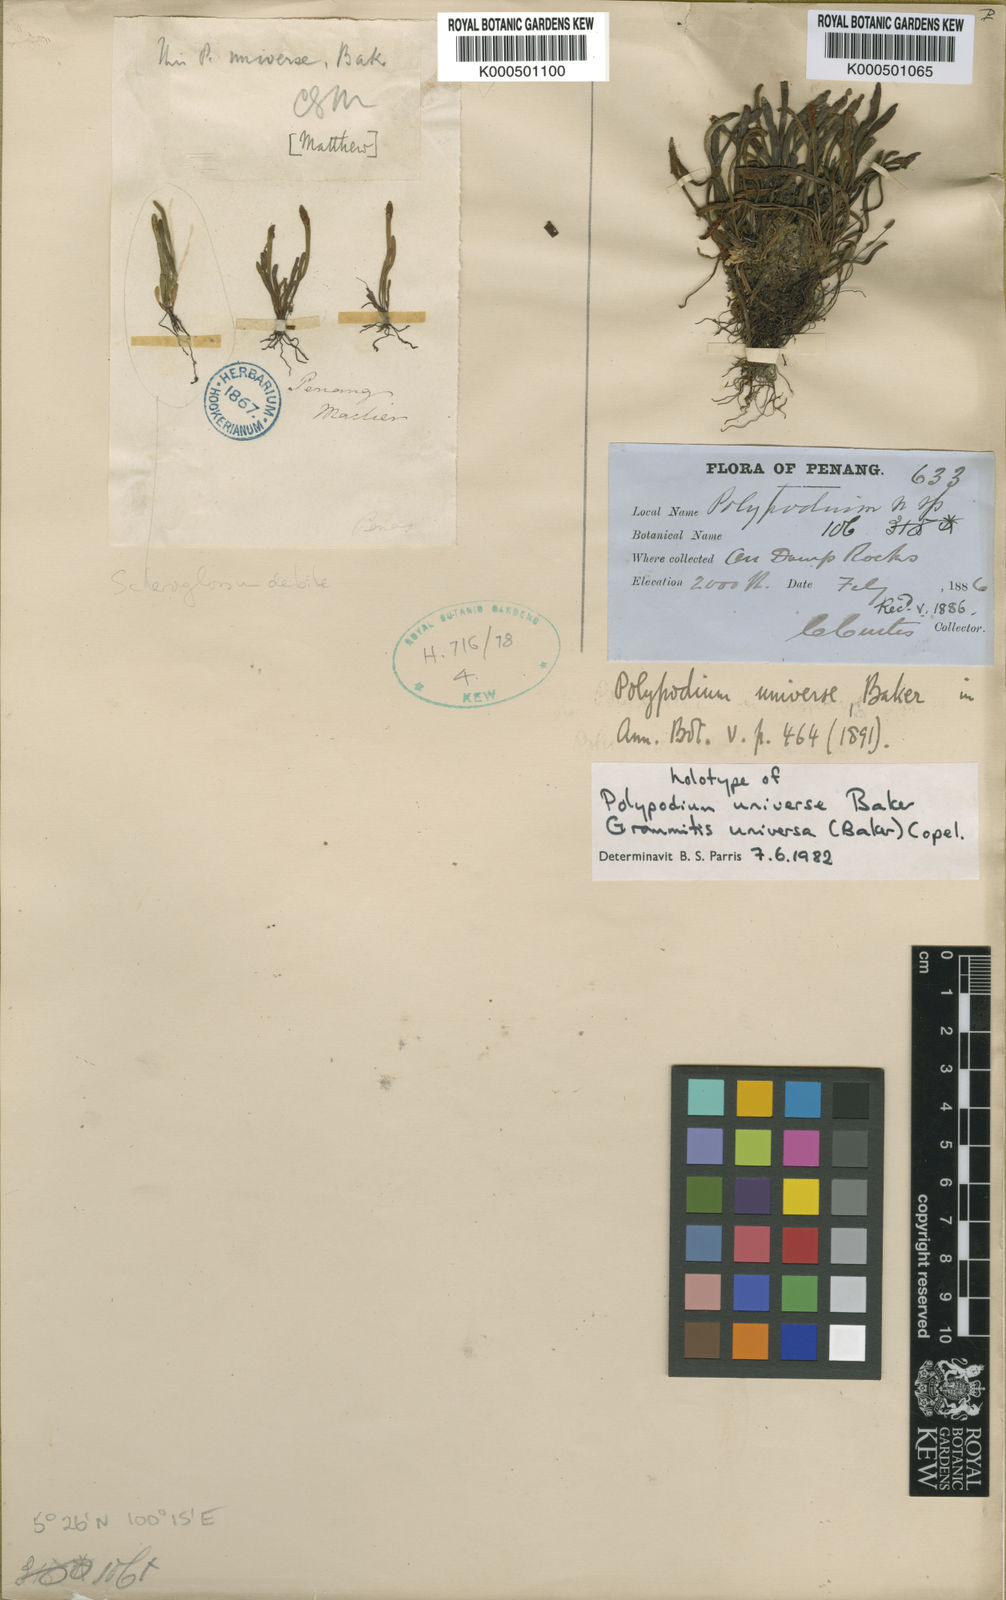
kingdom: Plantae
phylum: Tracheophyta
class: Polypodiopsida
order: Polypodiales
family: Polypodiaceae
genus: Oreogrammitis
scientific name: Oreogrammitis universa
